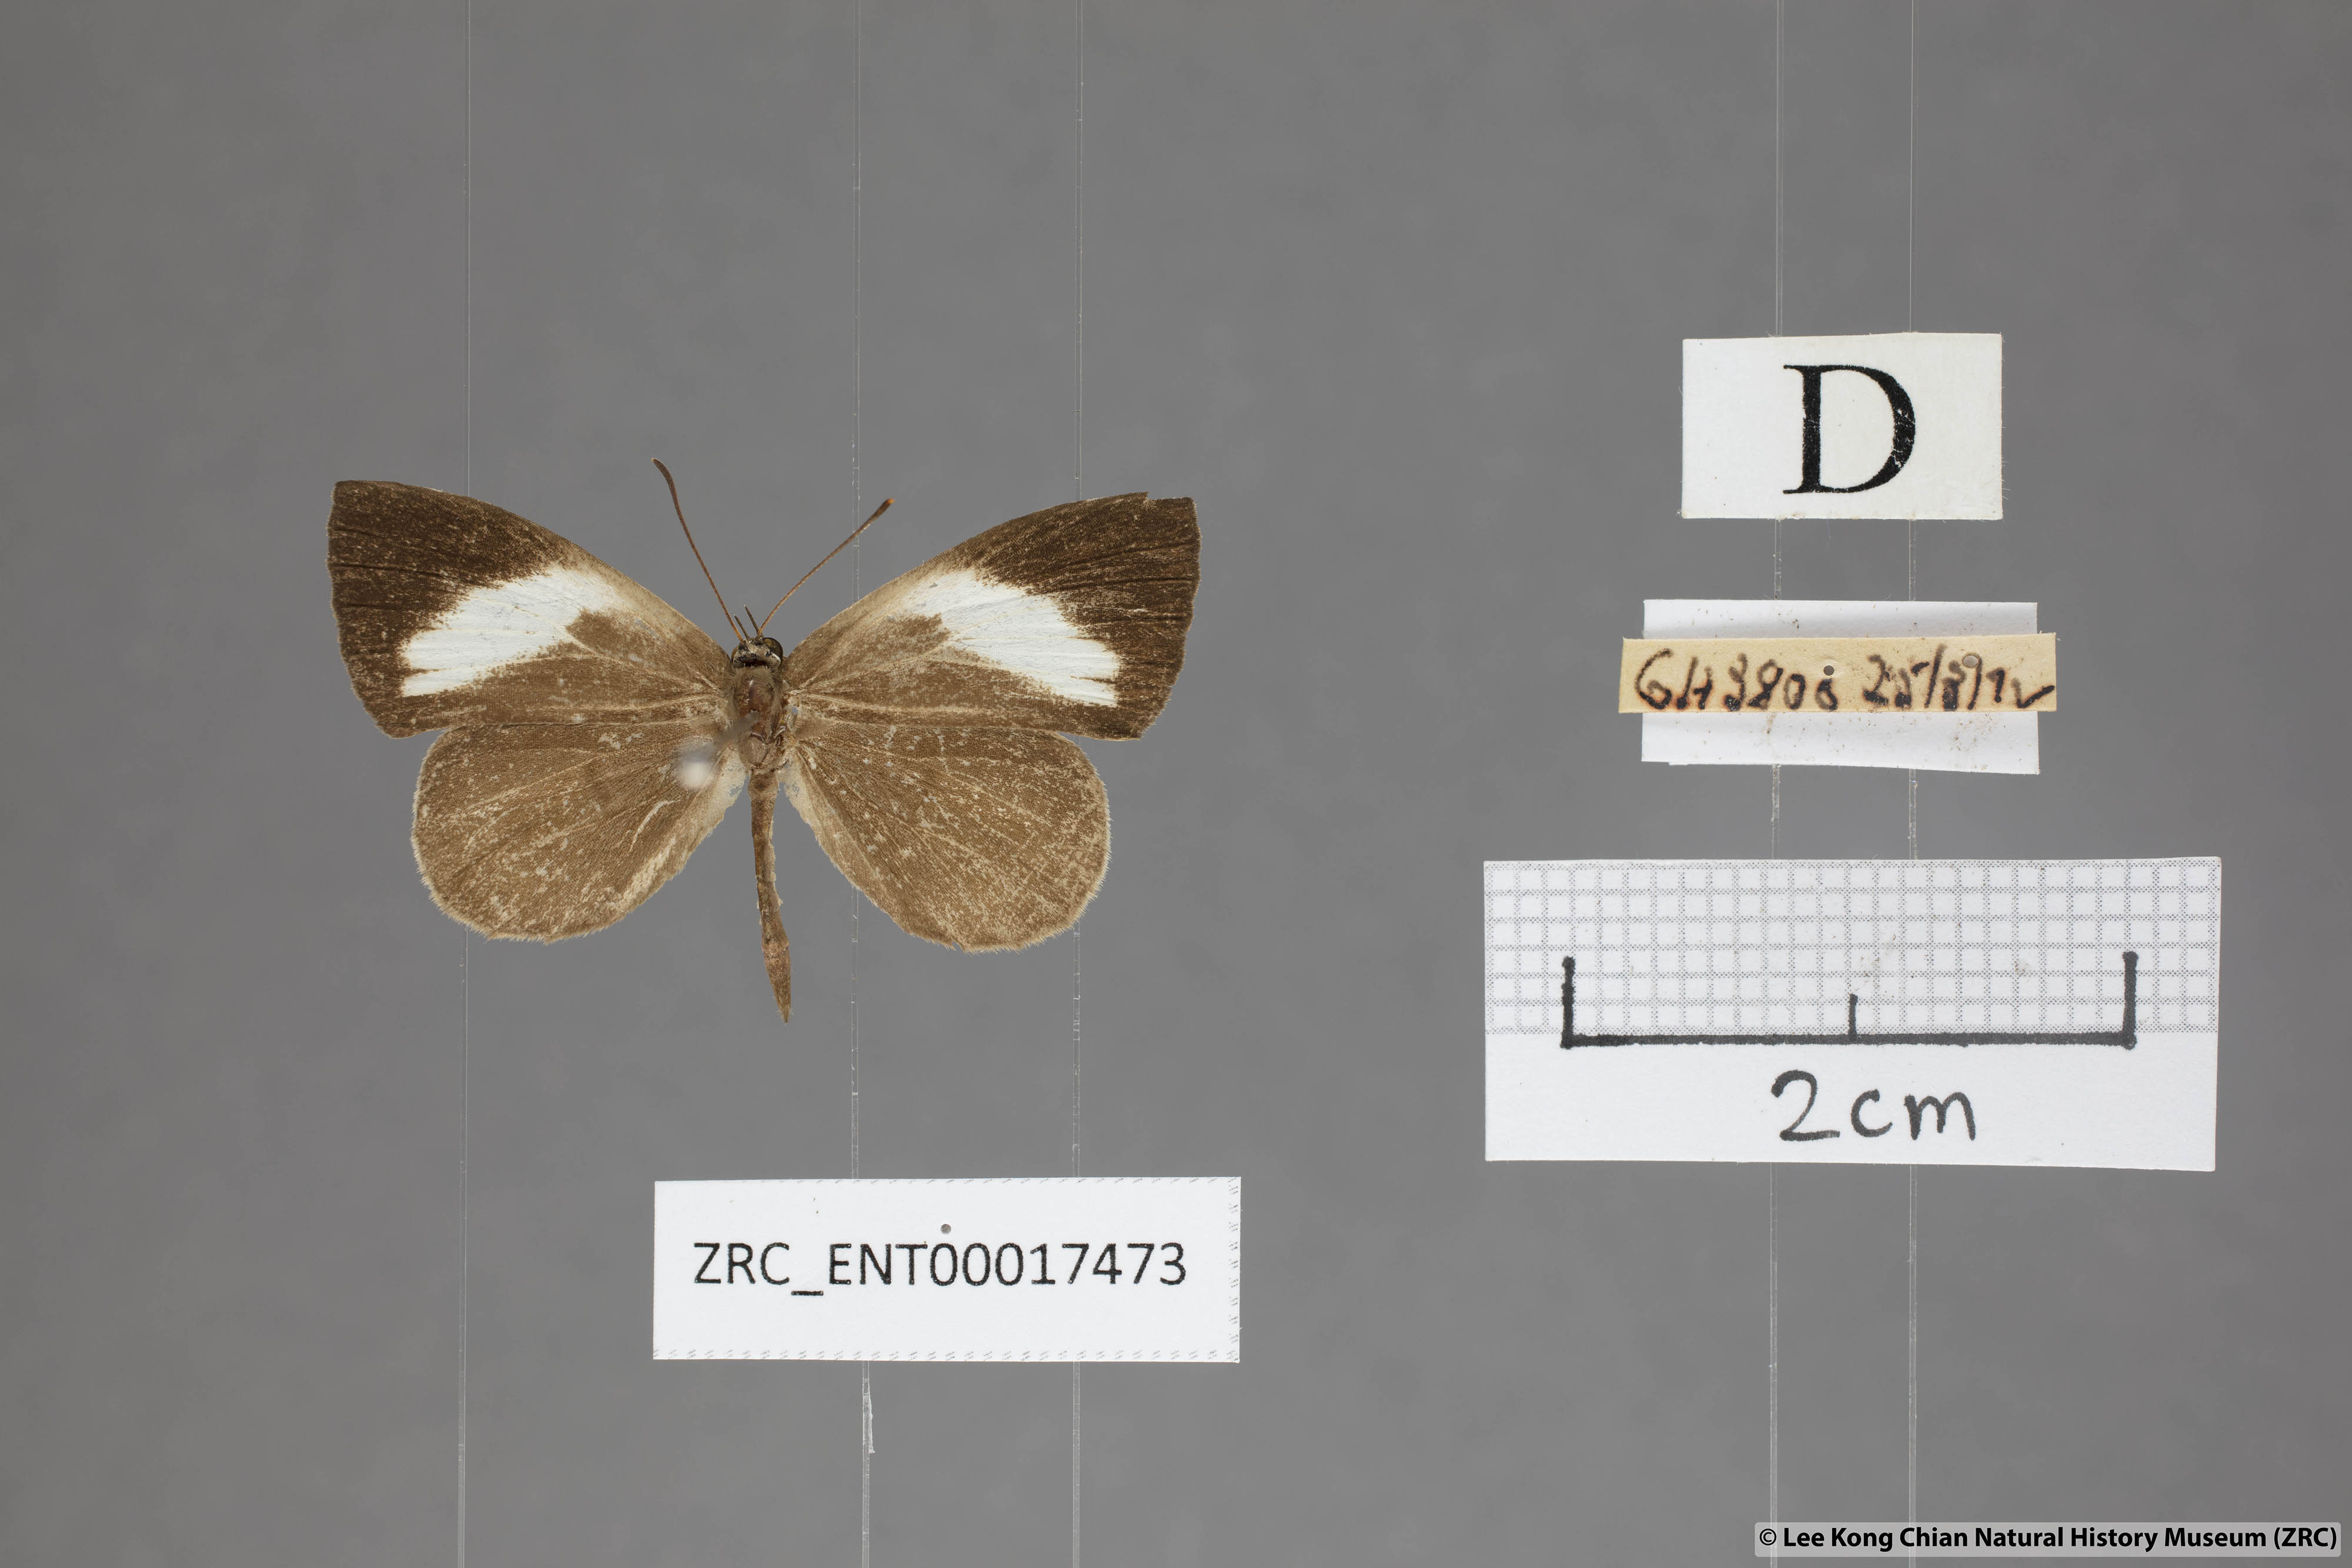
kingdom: Animalia
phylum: Arthropoda
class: Insecta
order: Lepidoptera
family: Lycaenidae
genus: Miletus
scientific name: Miletus nymphis
